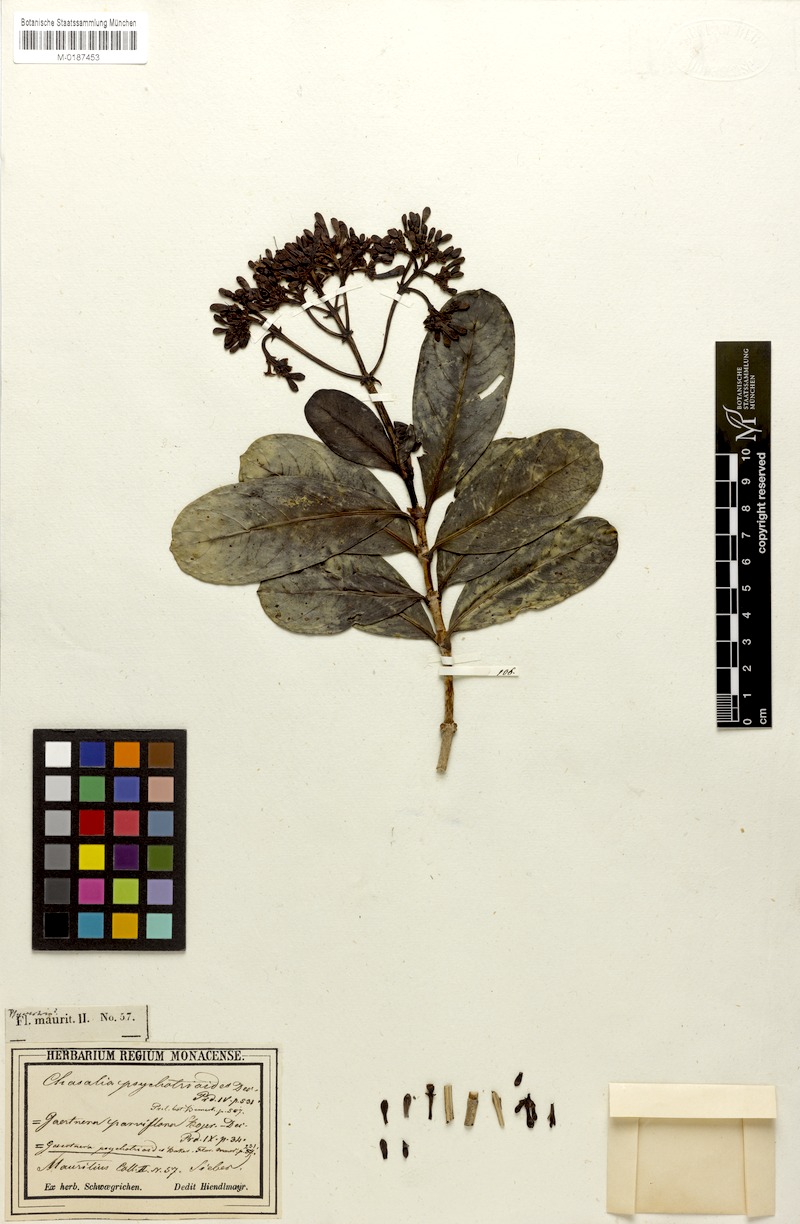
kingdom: Plantae
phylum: Tracheophyta
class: Magnoliopsida
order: Gentianales
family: Rubiaceae
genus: Gaertnera
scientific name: Gaertnera psychotrioides
